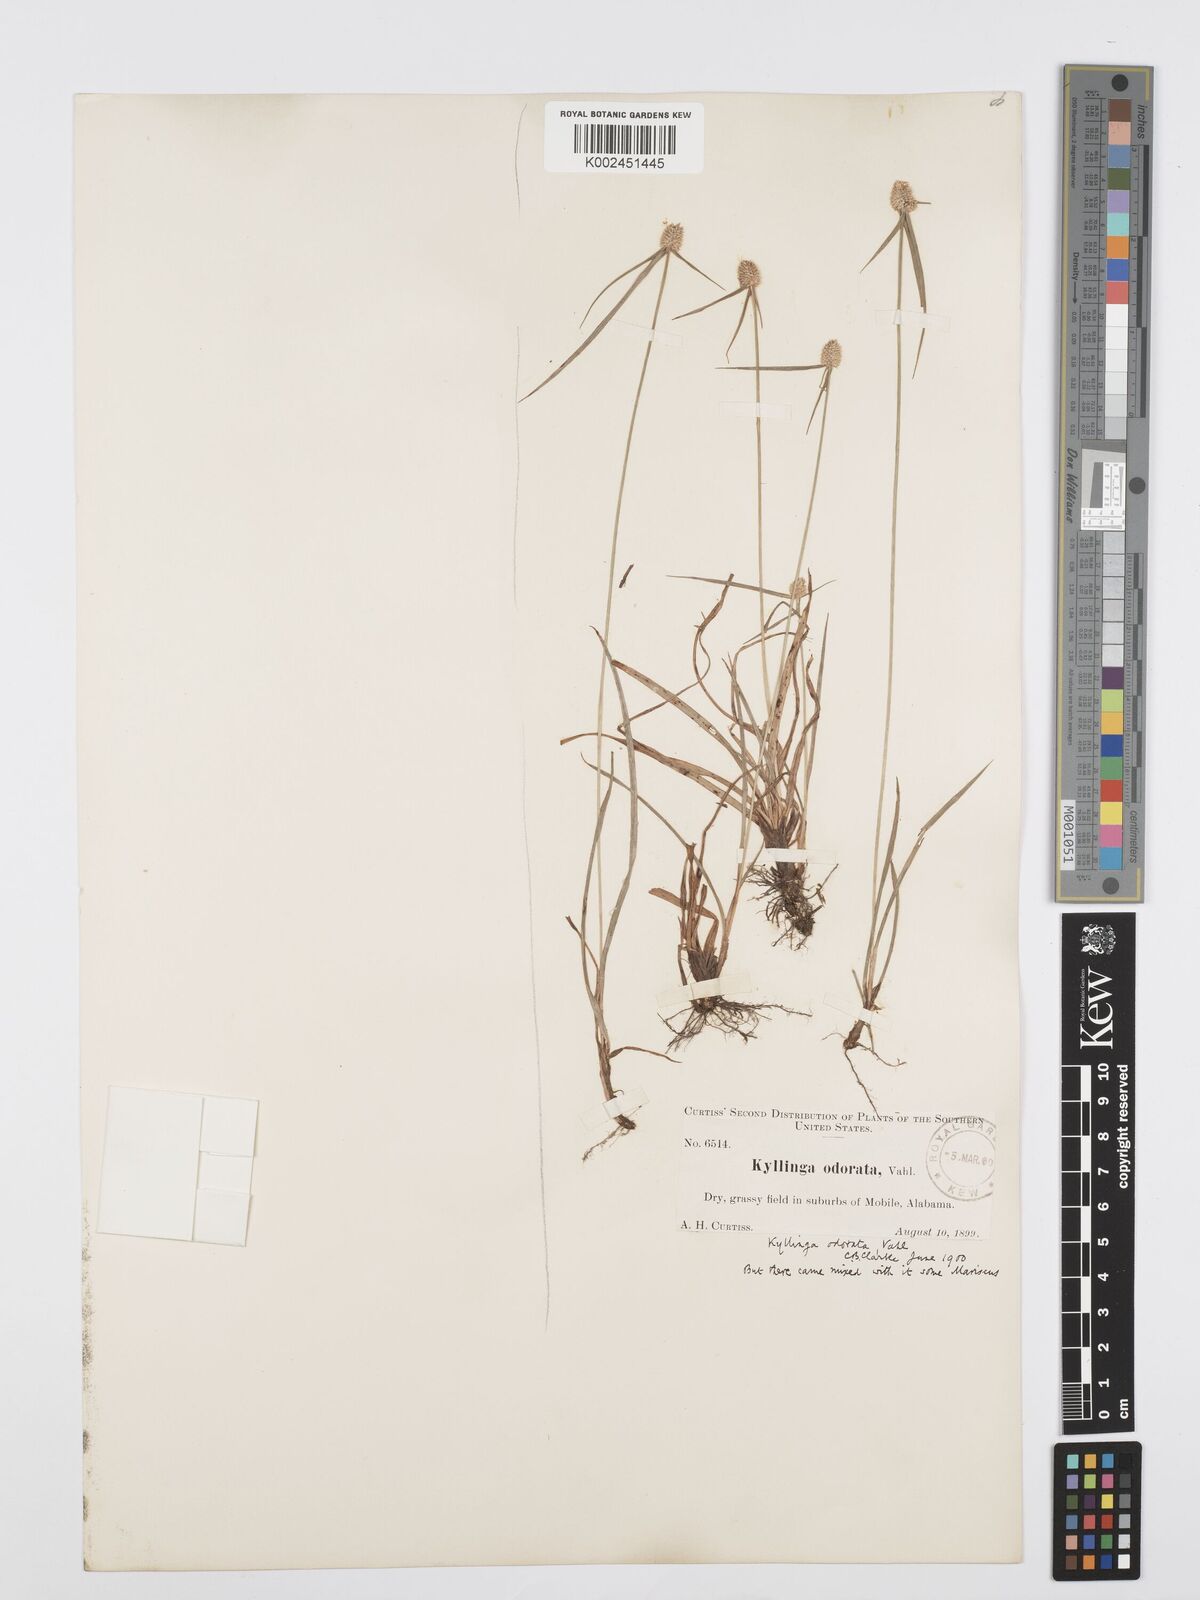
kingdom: Plantae
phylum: Tracheophyta
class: Liliopsida
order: Poales
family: Cyperaceae
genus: Cyperus
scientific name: Cyperus
